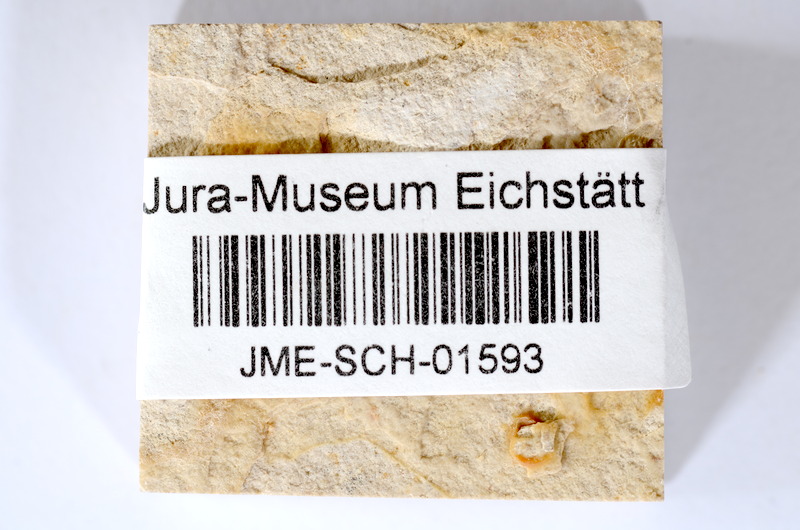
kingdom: Animalia
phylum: Chordata
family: Ascalaboidae
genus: Tharsis
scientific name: Tharsis dubius
